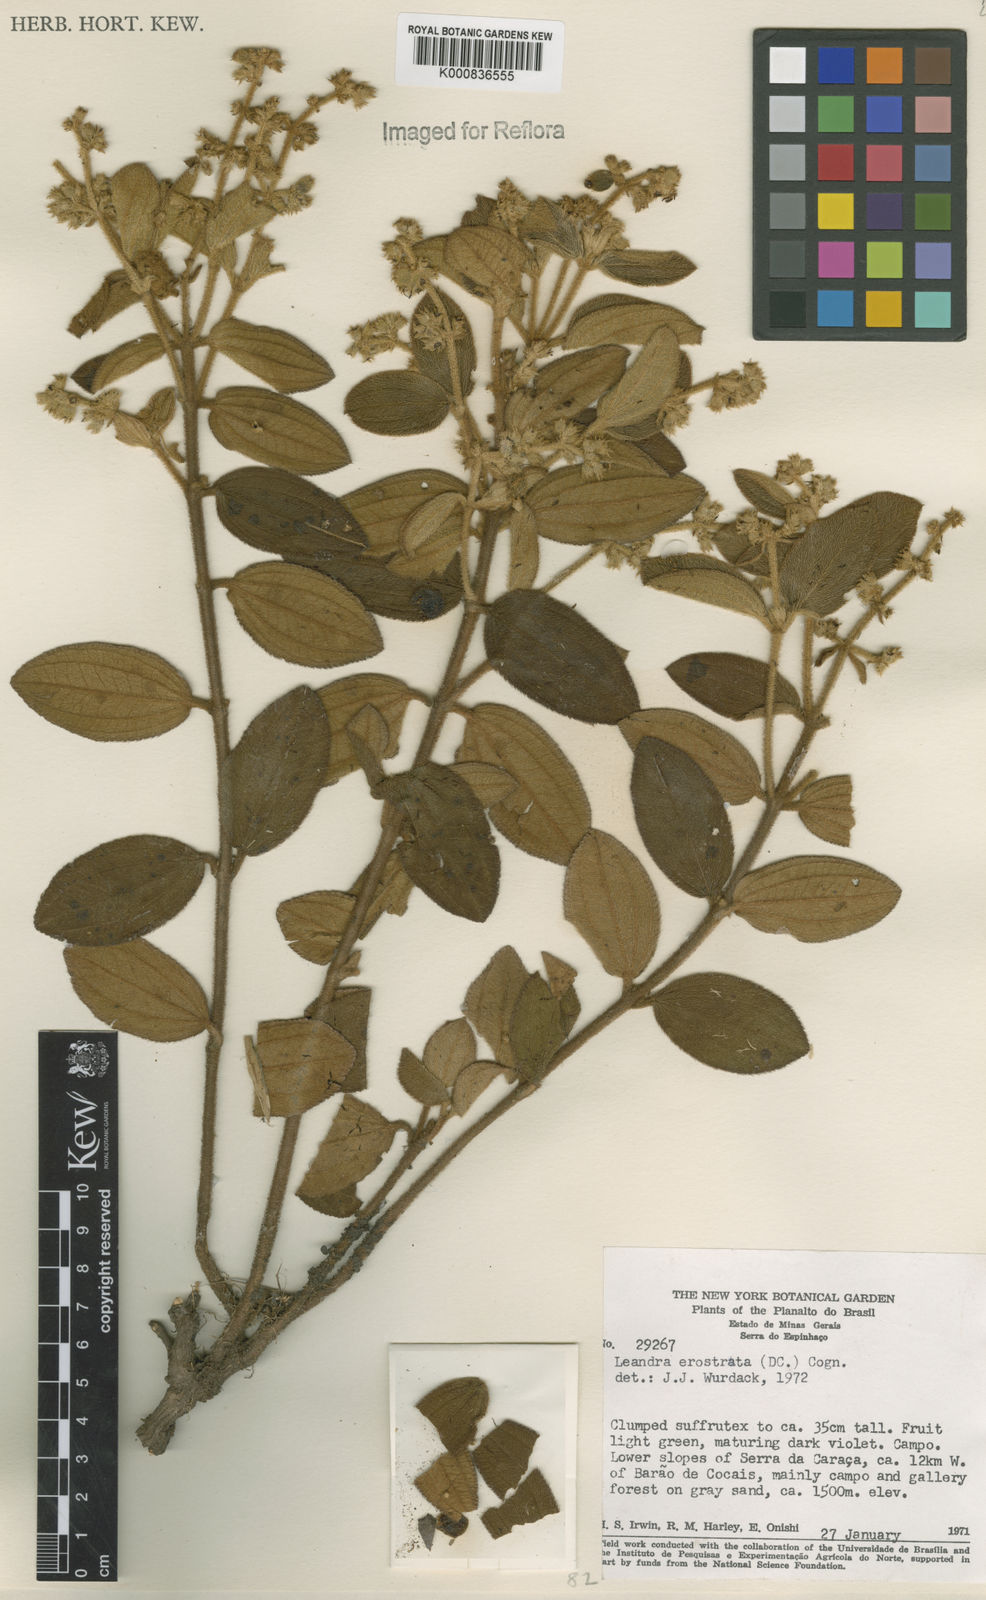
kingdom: Plantae
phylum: Tracheophyta
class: Magnoliopsida
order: Myrtales
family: Melastomataceae
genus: Miconia
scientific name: Miconia erostrata
